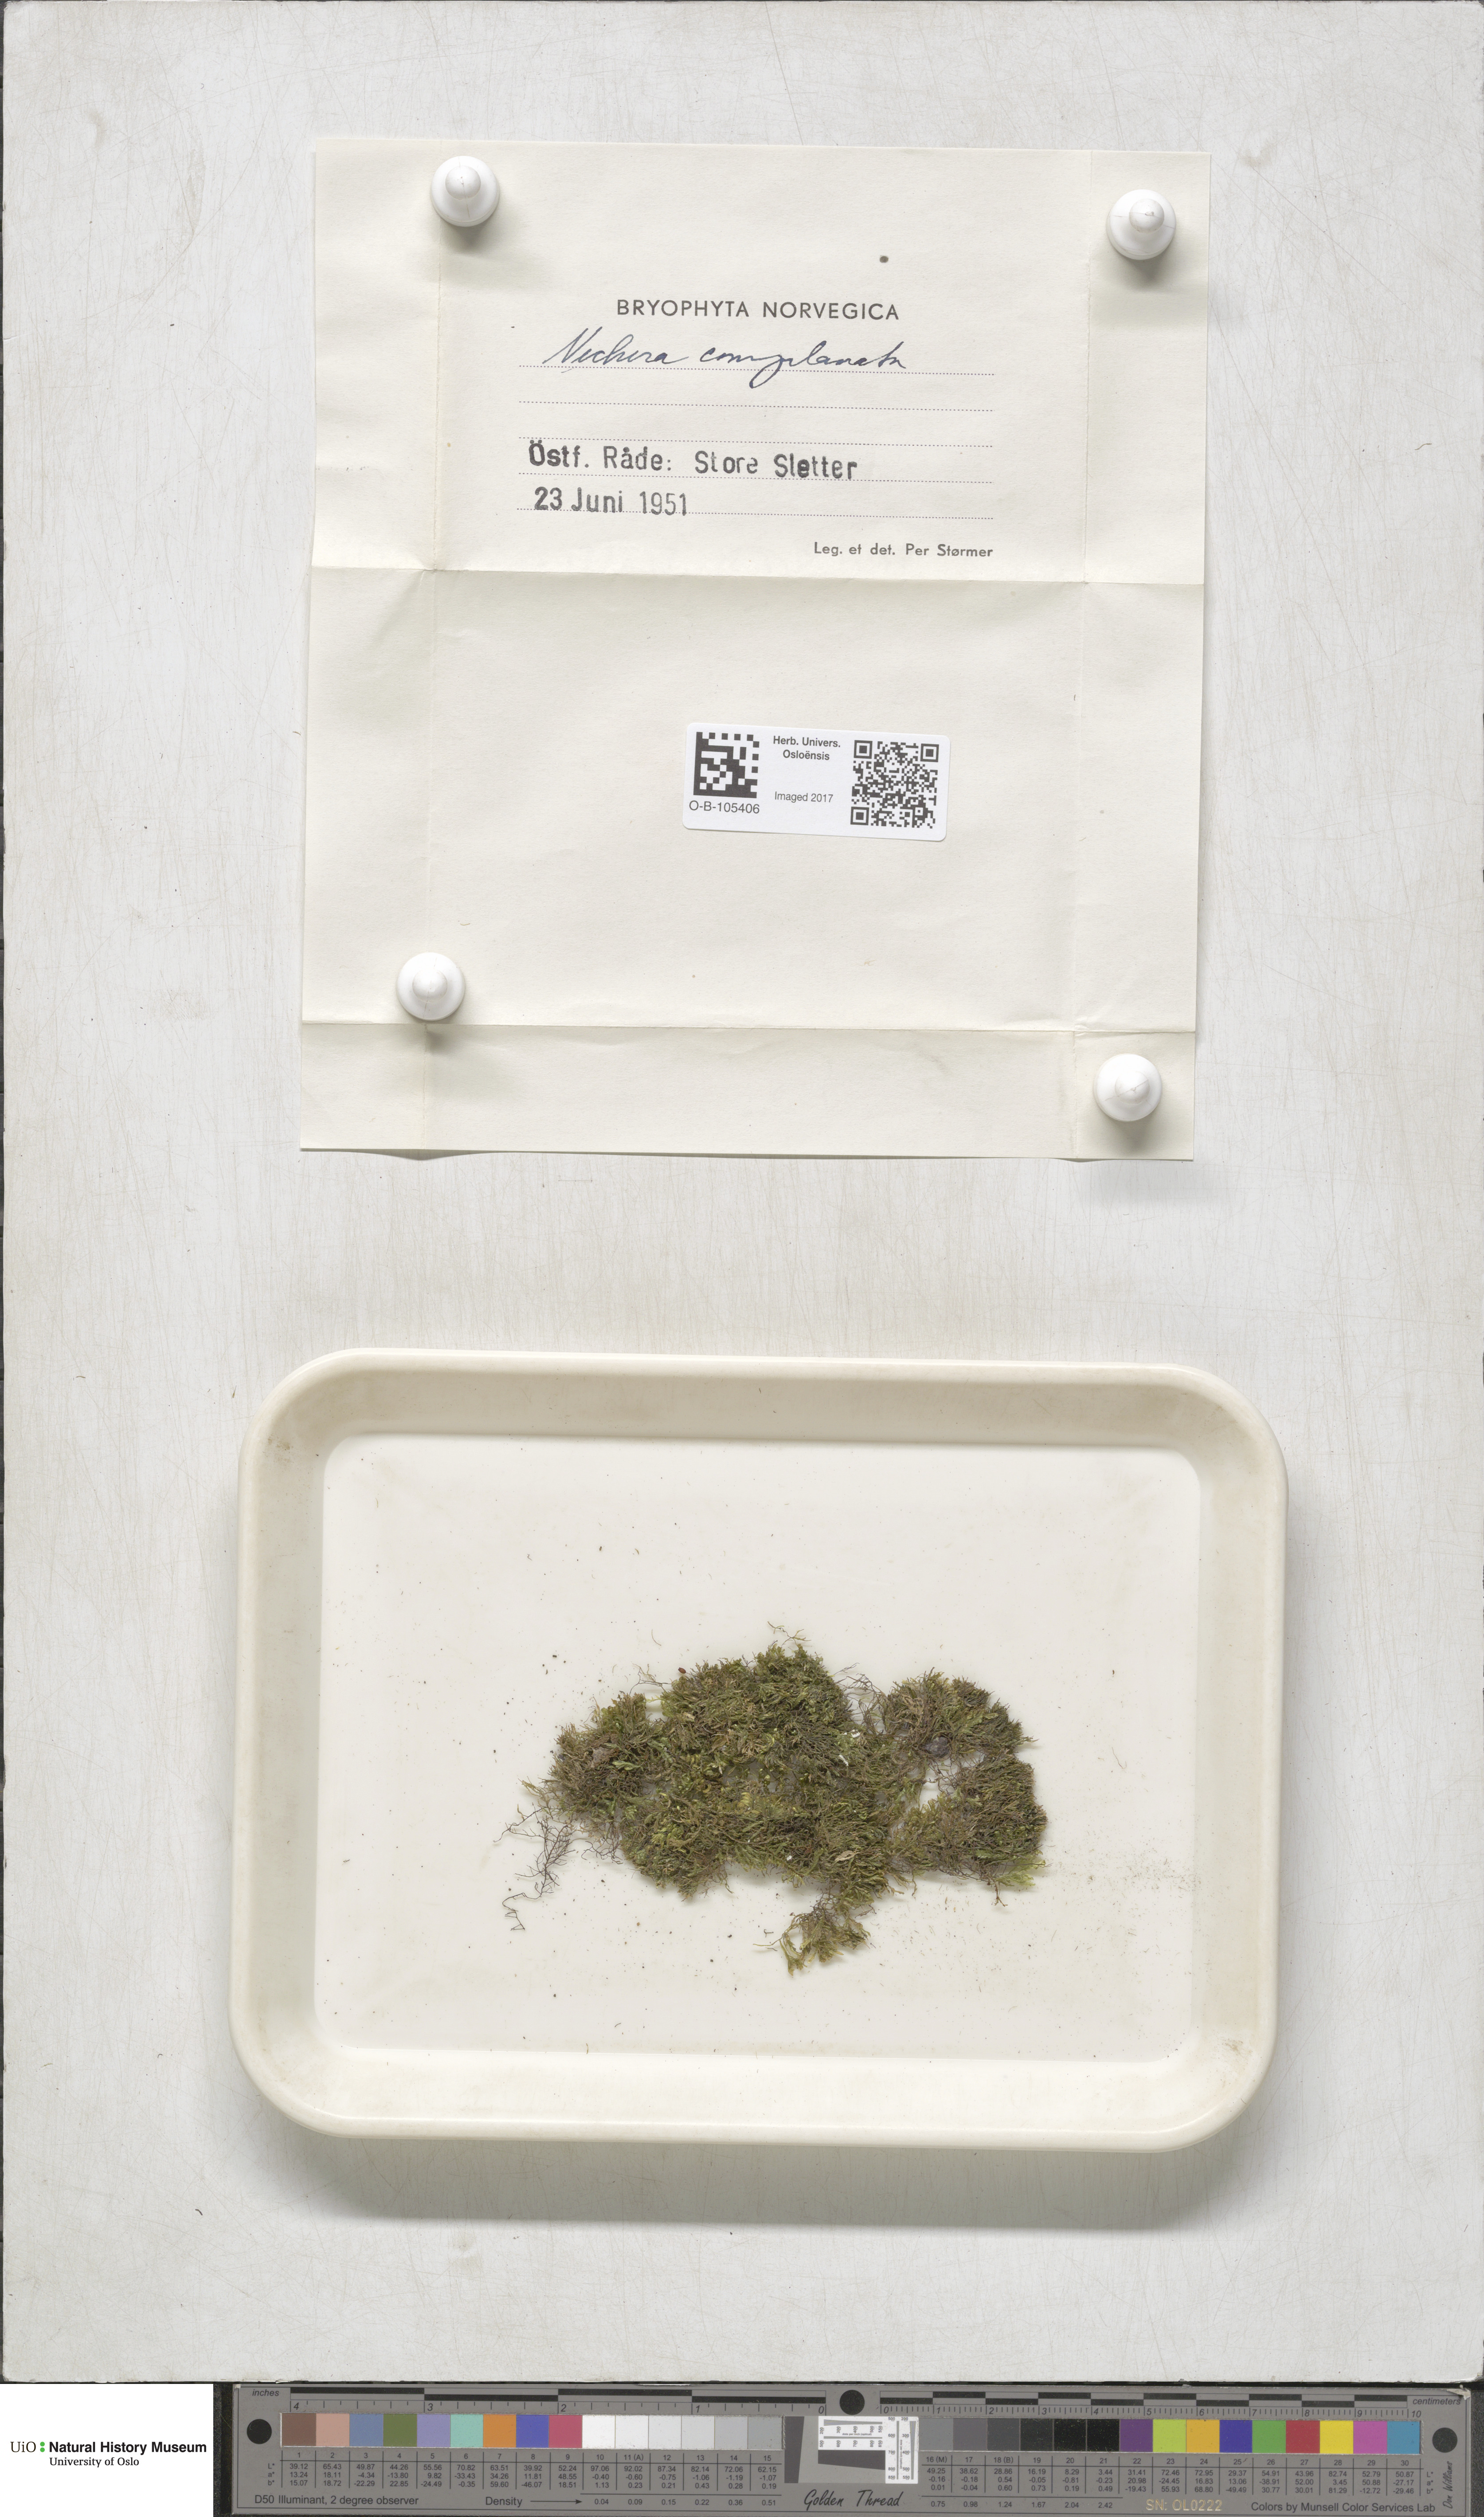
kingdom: Plantae
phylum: Bryophyta
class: Bryopsida
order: Hypnales
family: Neckeraceae
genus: Alleniella
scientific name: Alleniella complanata
